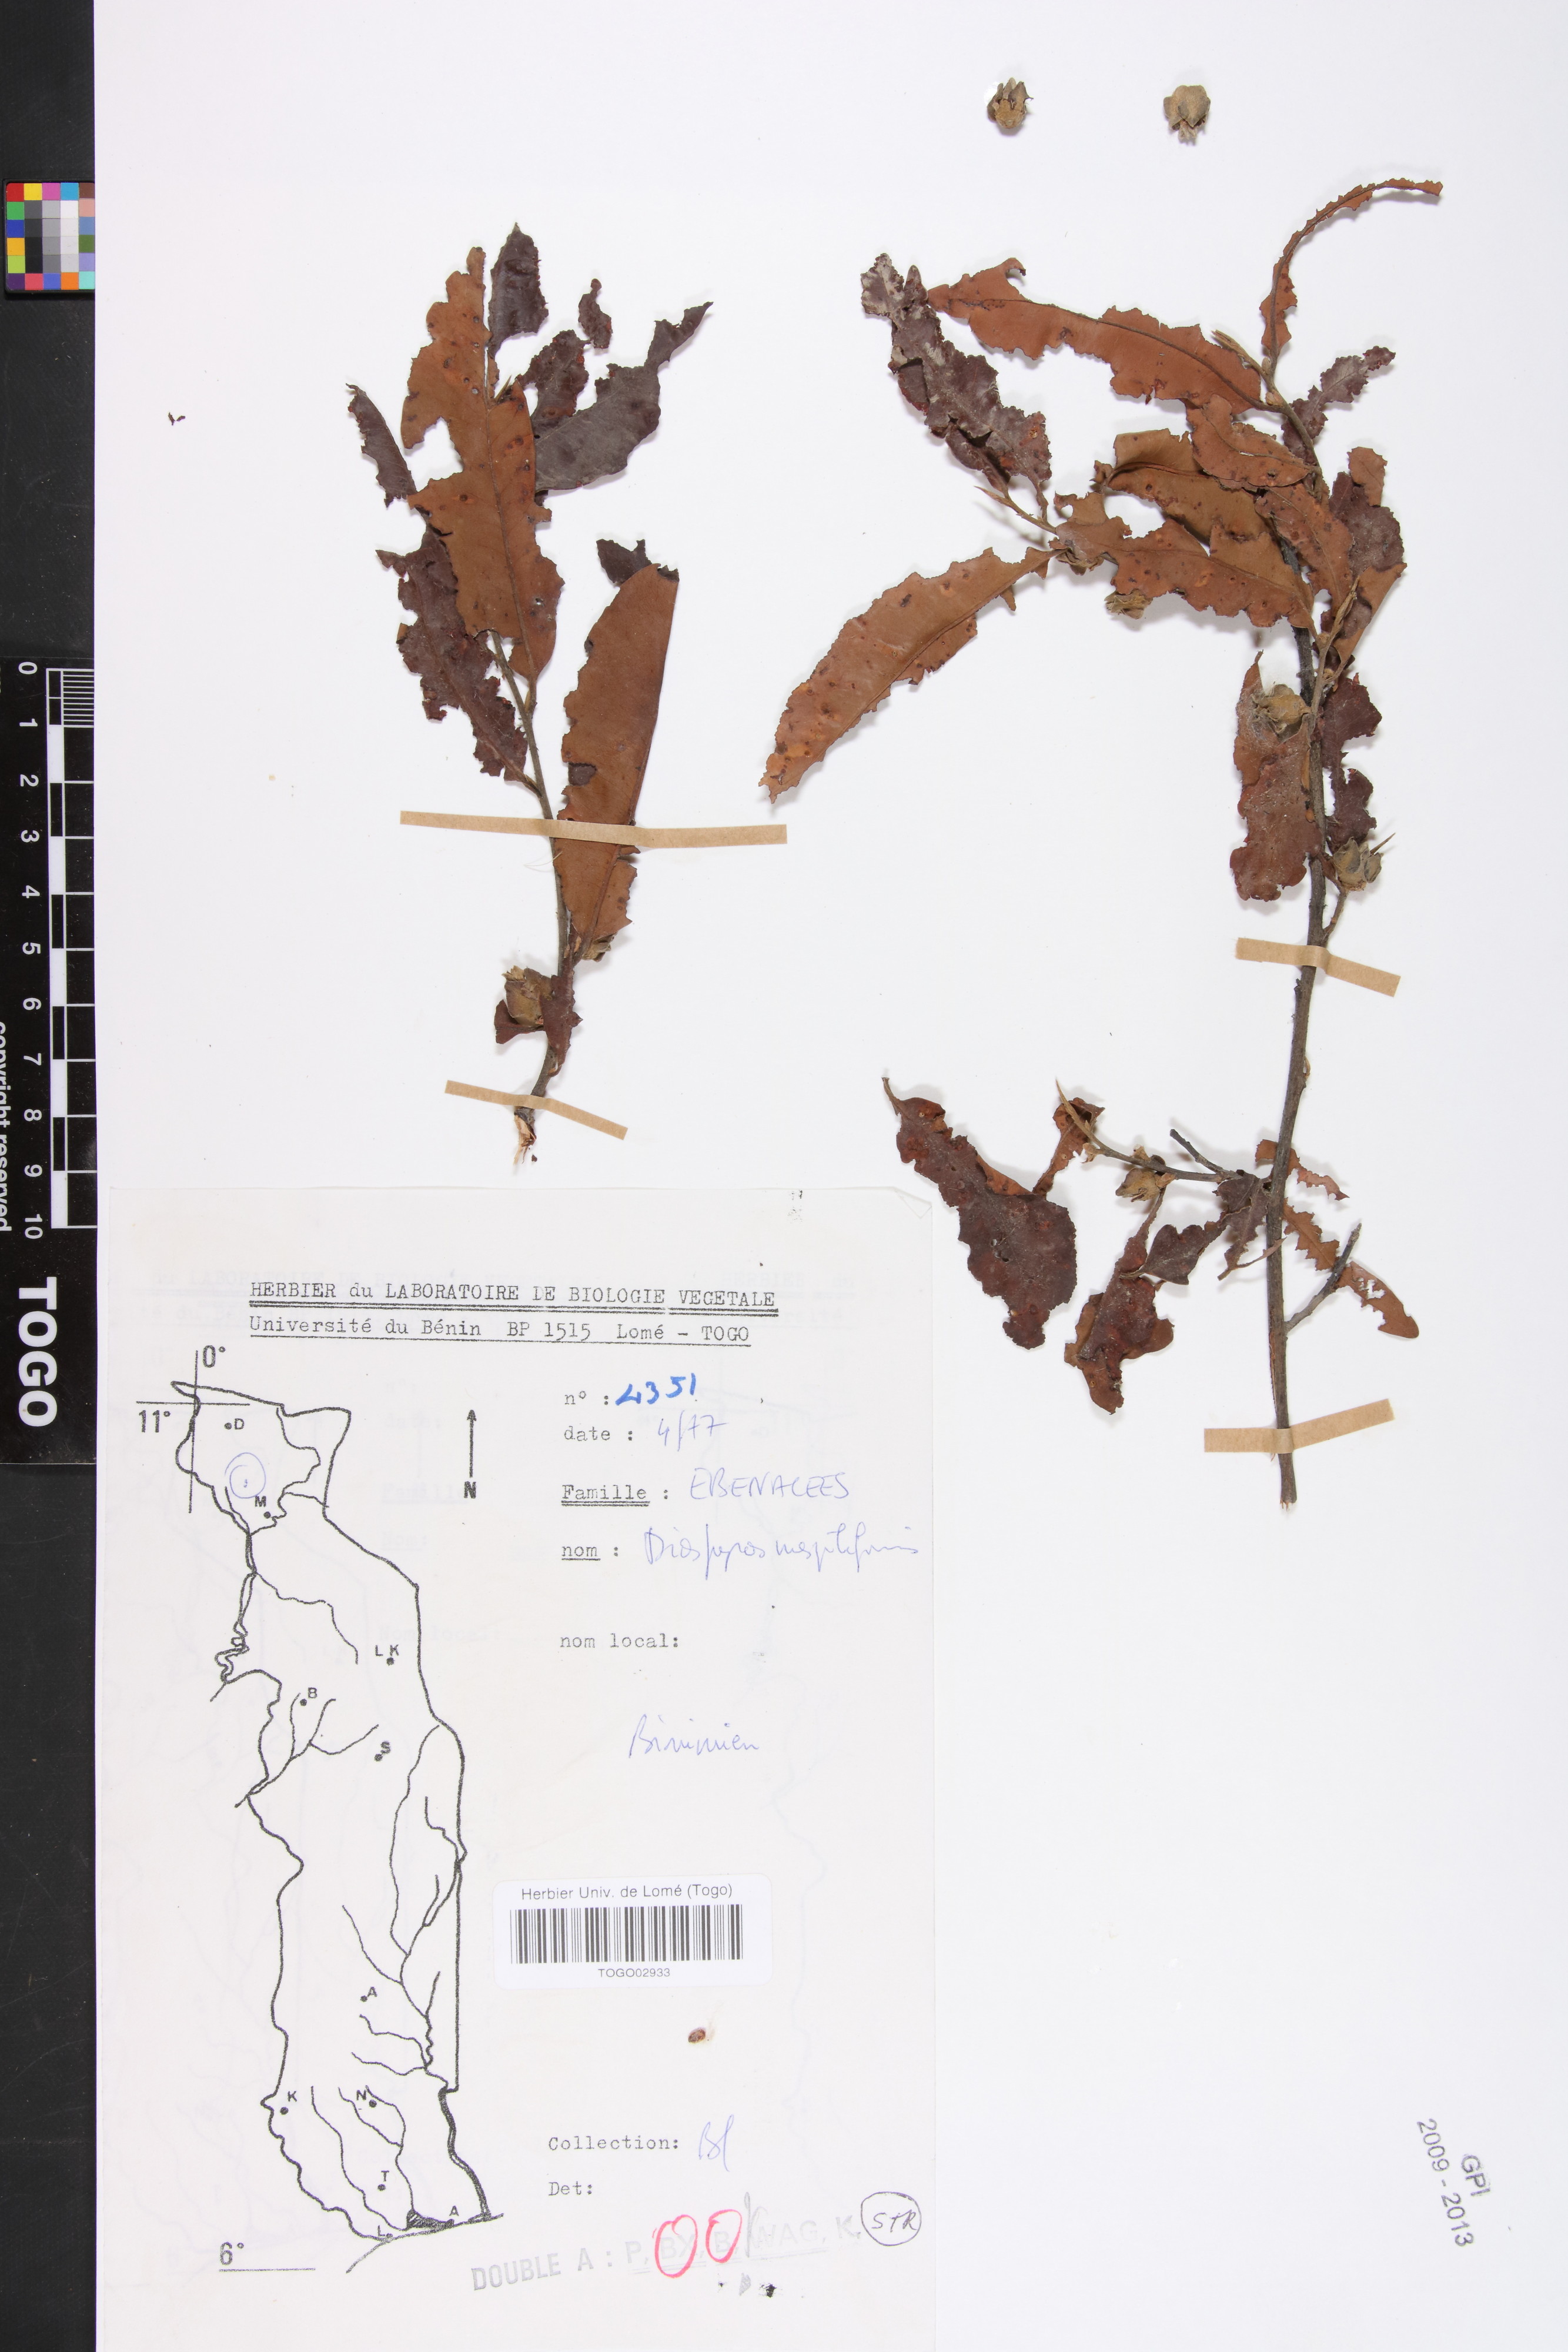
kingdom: Plantae
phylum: Tracheophyta
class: Magnoliopsida
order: Ericales
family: Ebenaceae
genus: Diospyros
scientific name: Diospyros mespiliformis
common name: Ebony diospyros
